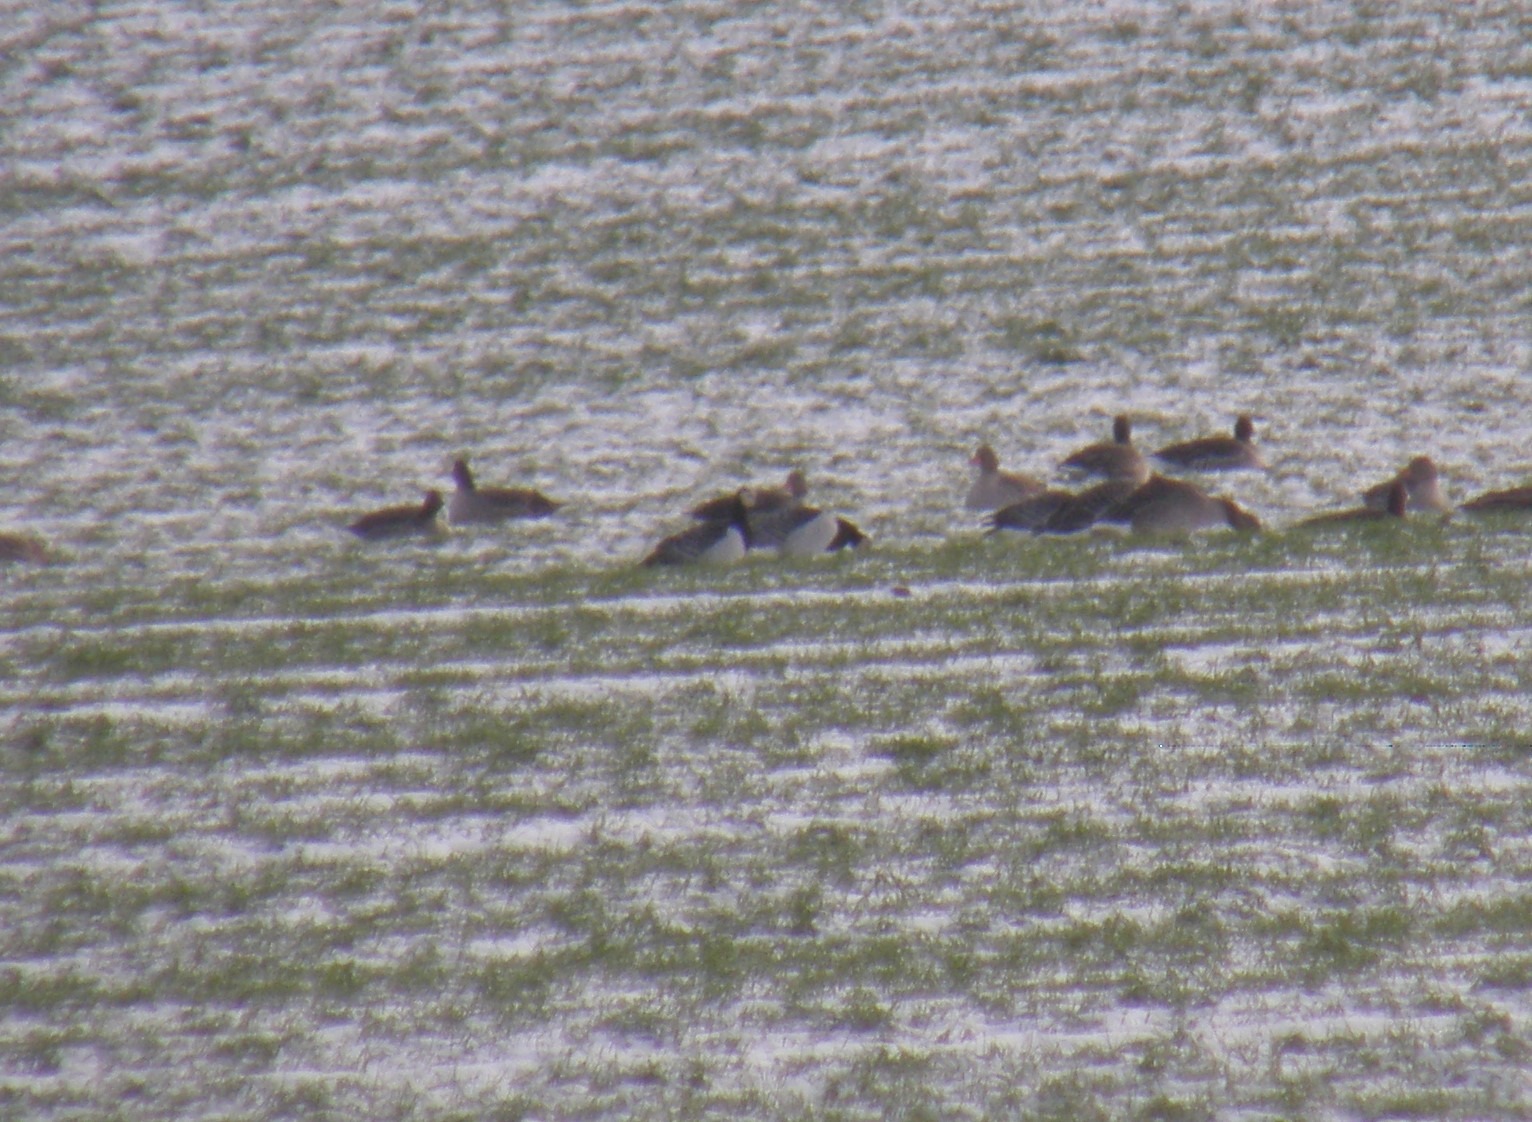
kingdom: Animalia
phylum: Chordata
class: Aves
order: Anseriformes
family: Anatidae
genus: Branta
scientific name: Branta leucopsis
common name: Bramgås
